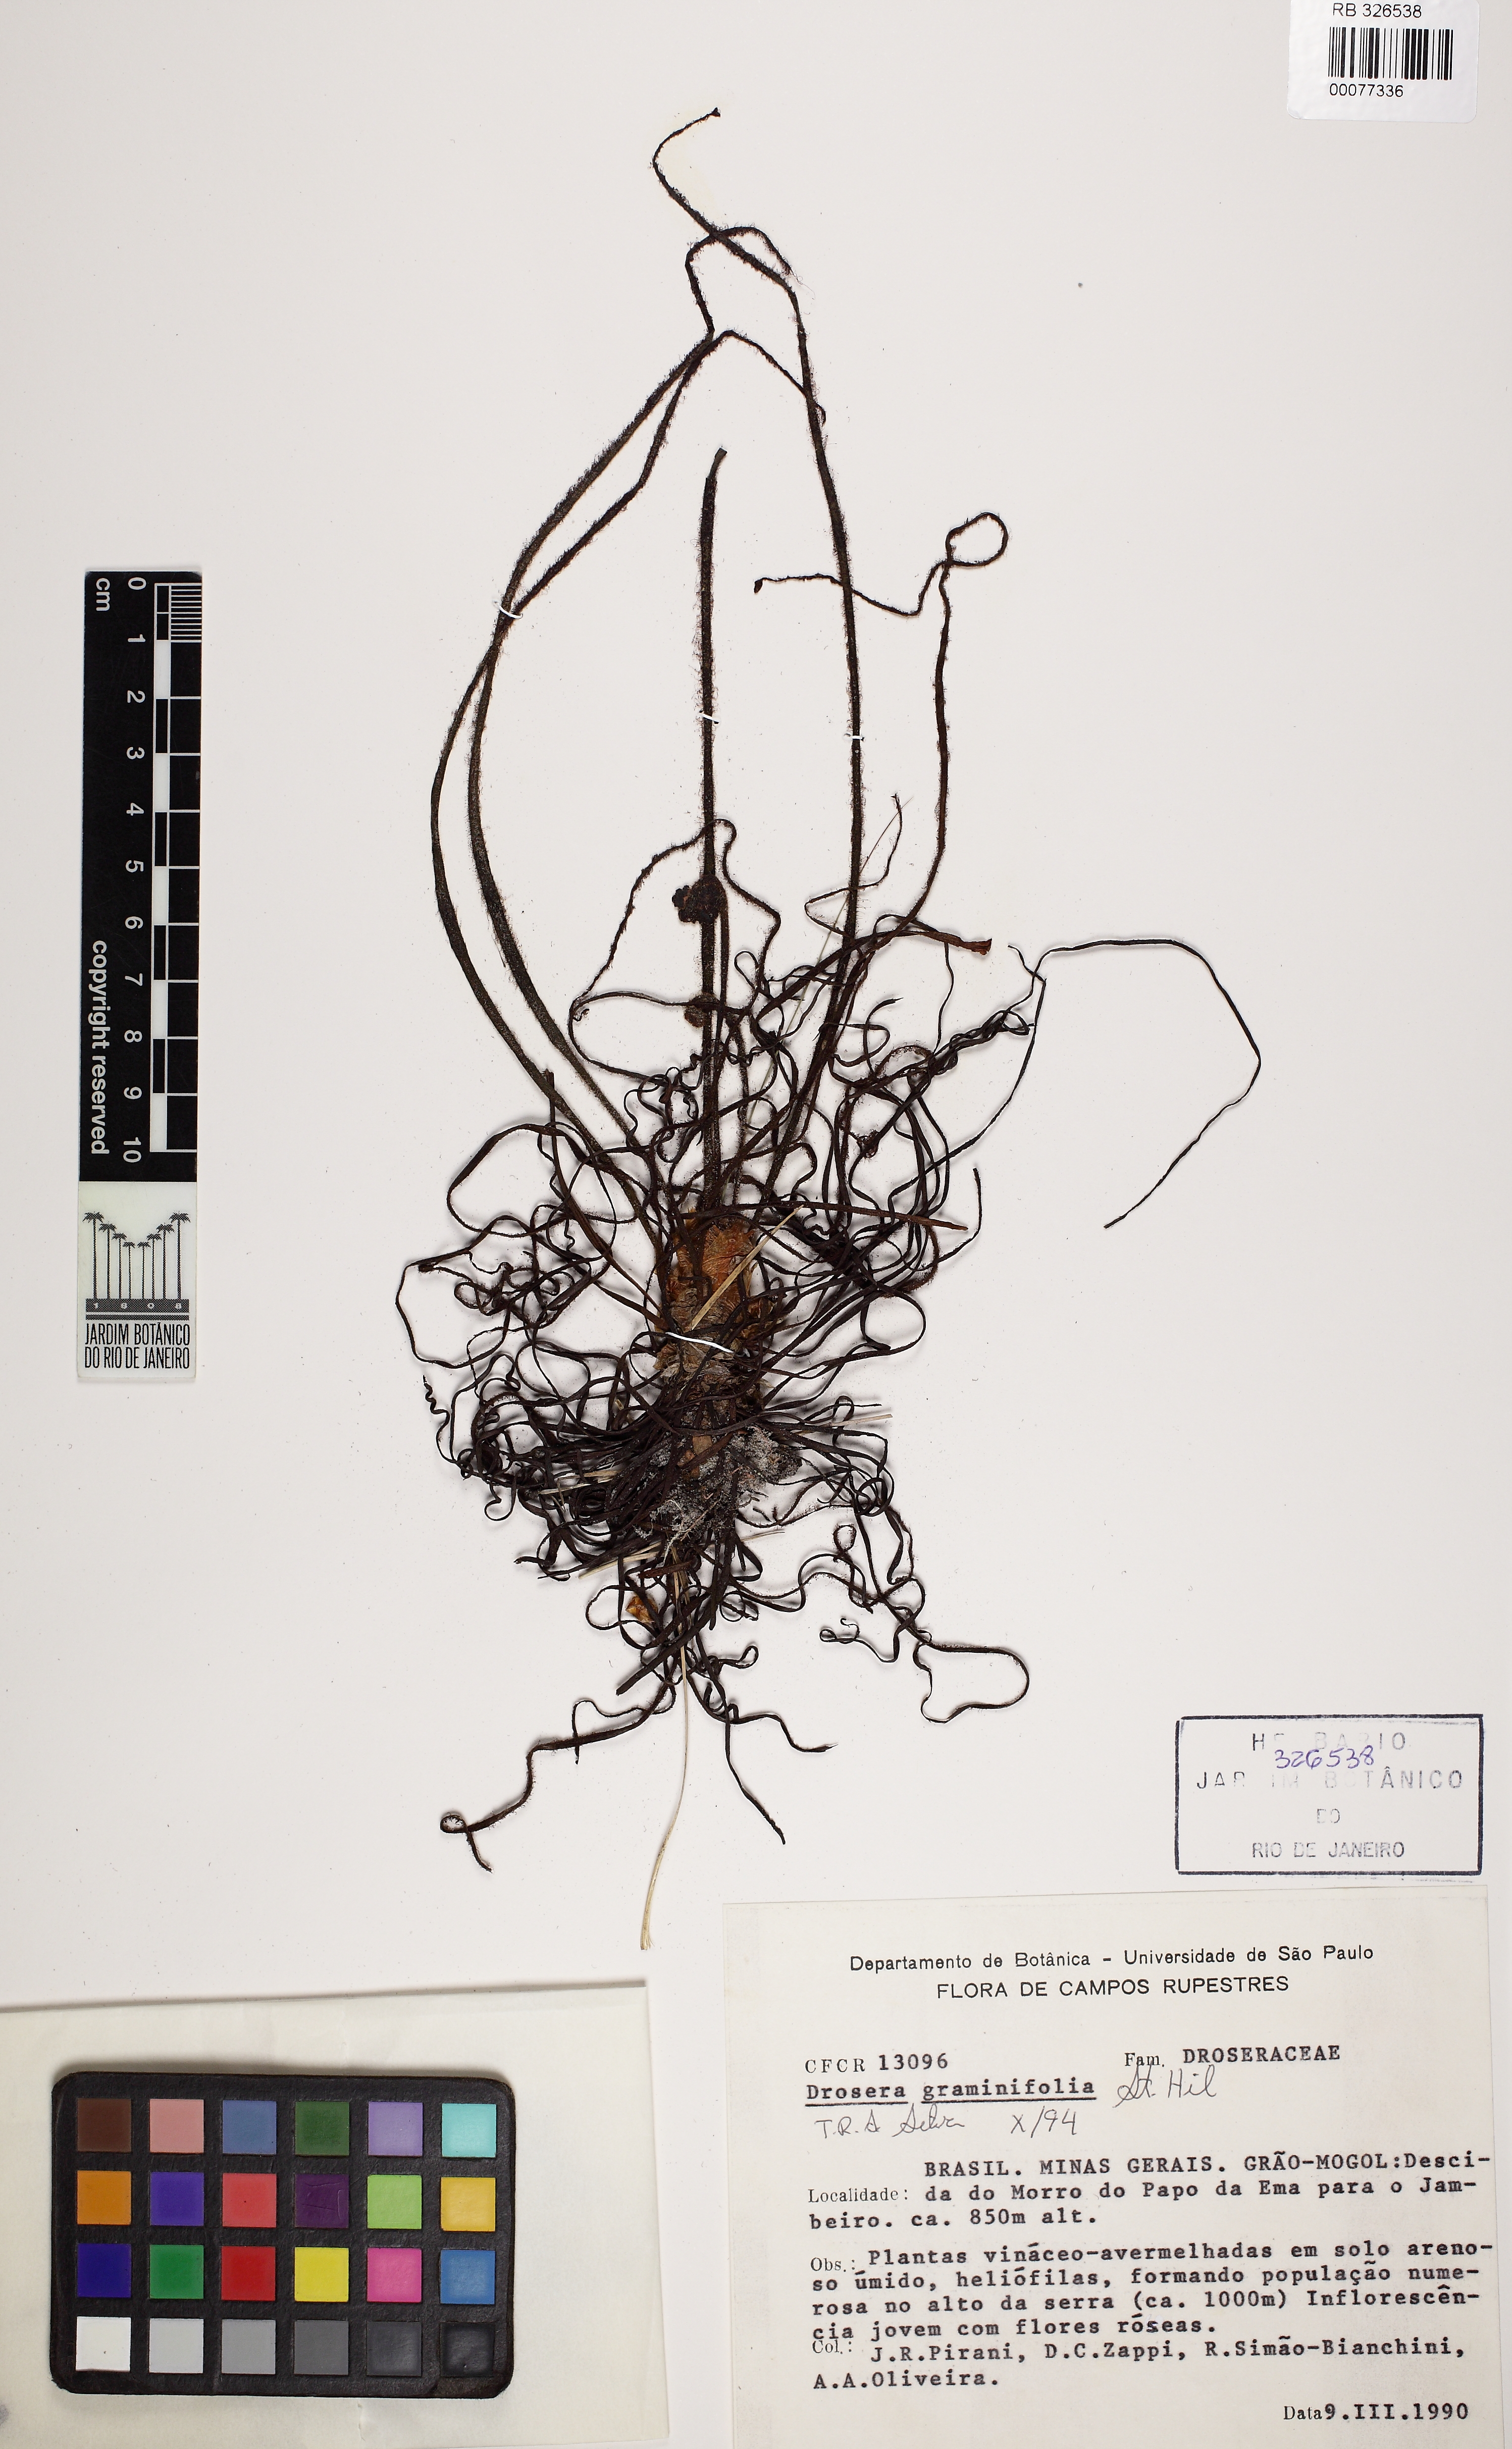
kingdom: Plantae
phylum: Tracheophyta
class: Magnoliopsida
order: Caryophyllales
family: Droseraceae
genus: Drosera
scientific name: Drosera graminifolia
